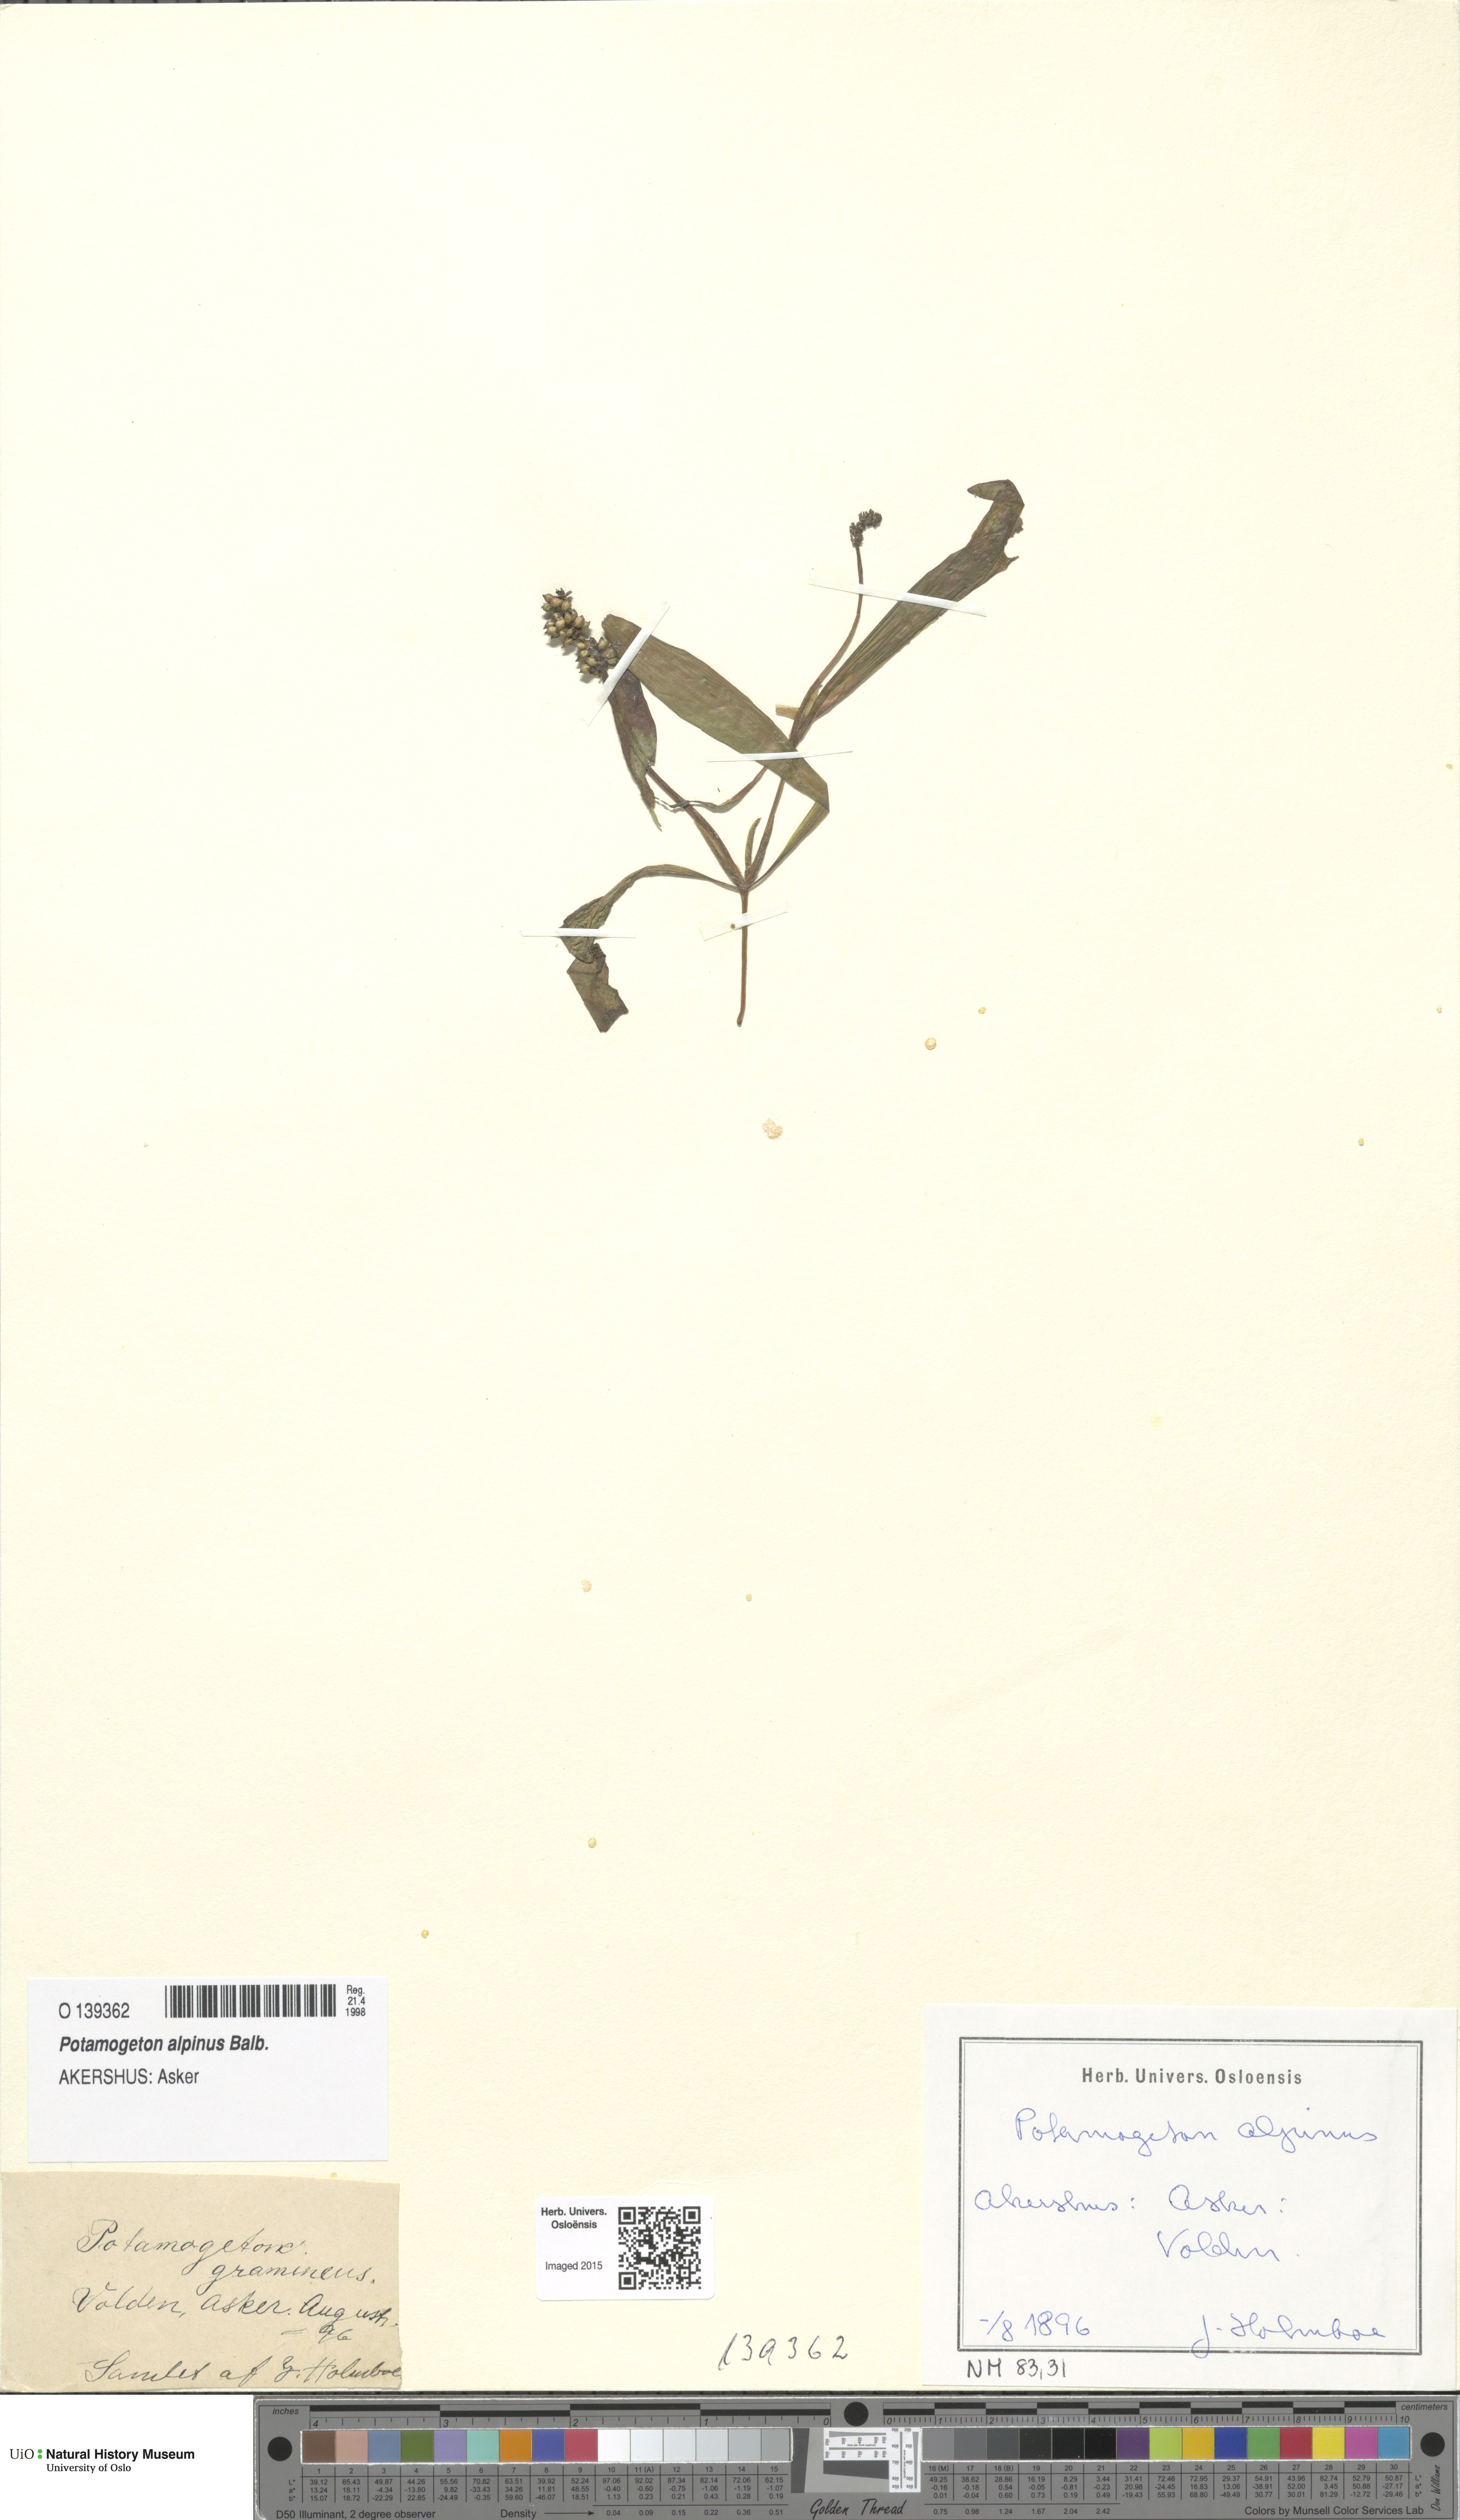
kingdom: Plantae
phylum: Tracheophyta
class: Liliopsida
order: Alismatales
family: Potamogetonaceae
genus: Potamogeton
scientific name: Potamogeton alpinus
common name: Red pondweed
